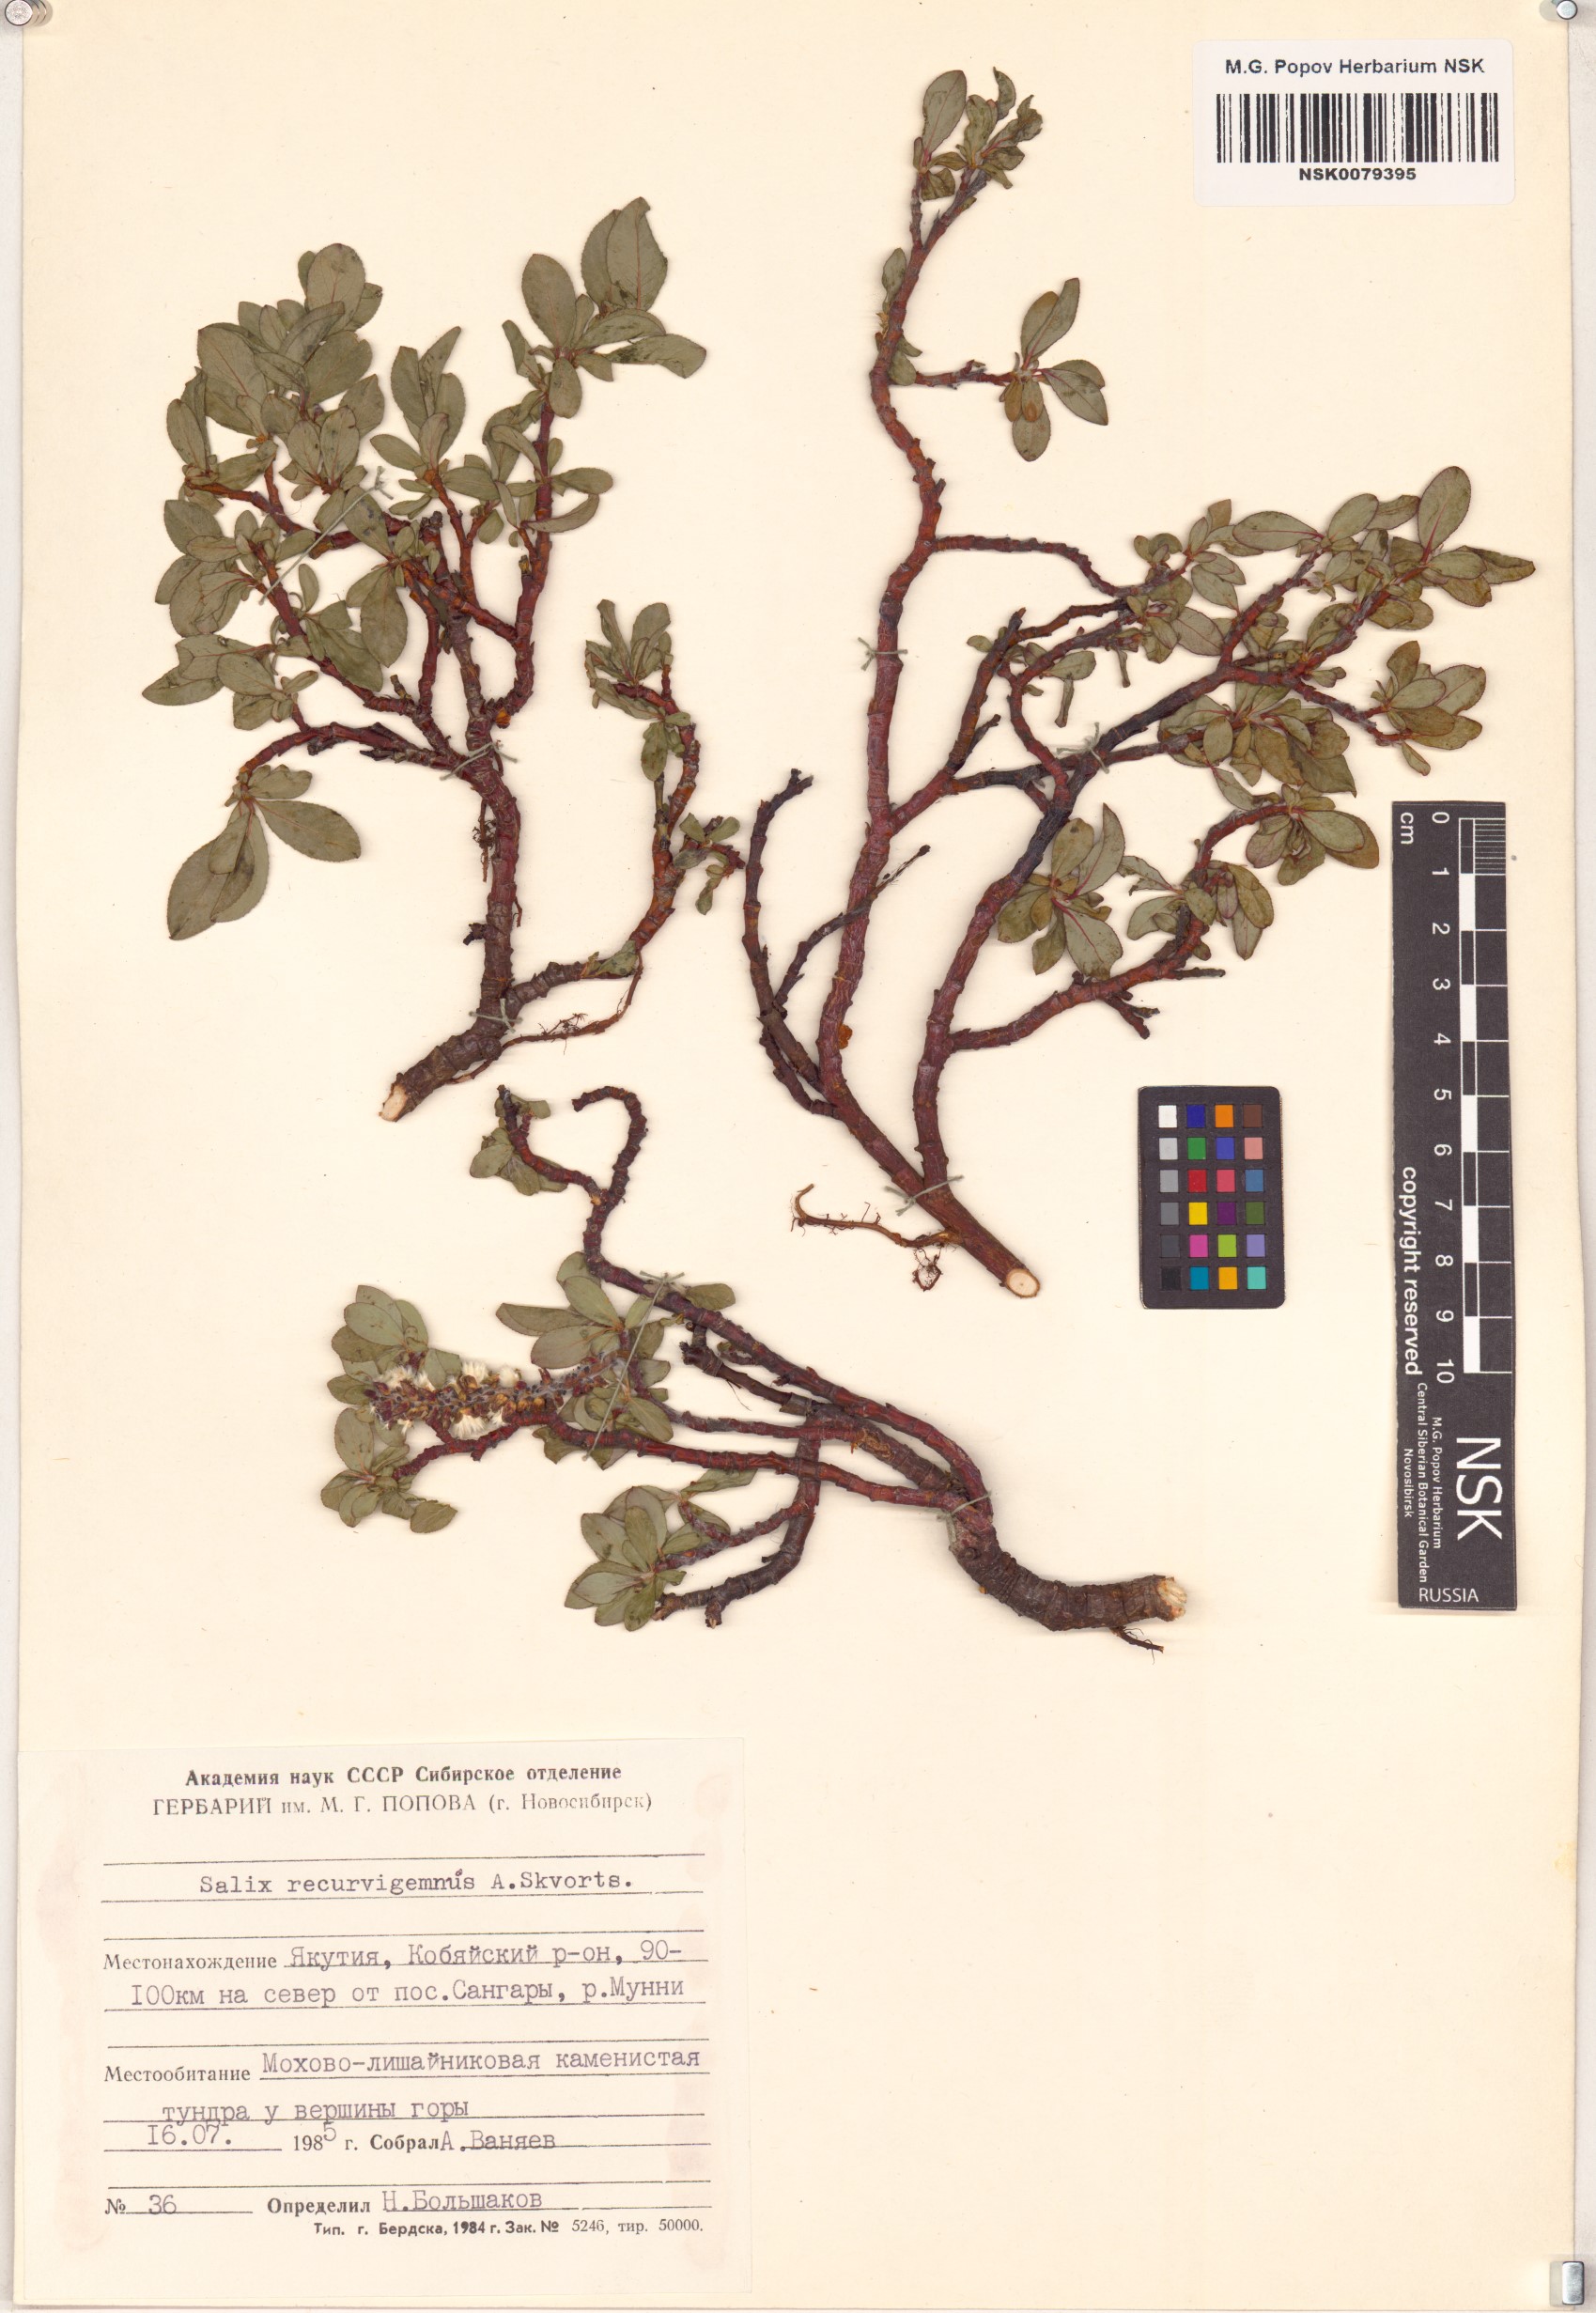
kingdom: Plantae
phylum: Tracheophyta
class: Magnoliopsida
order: Malpighiales
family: Salicaceae
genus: Salix
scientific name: Salix recurvigemmata
